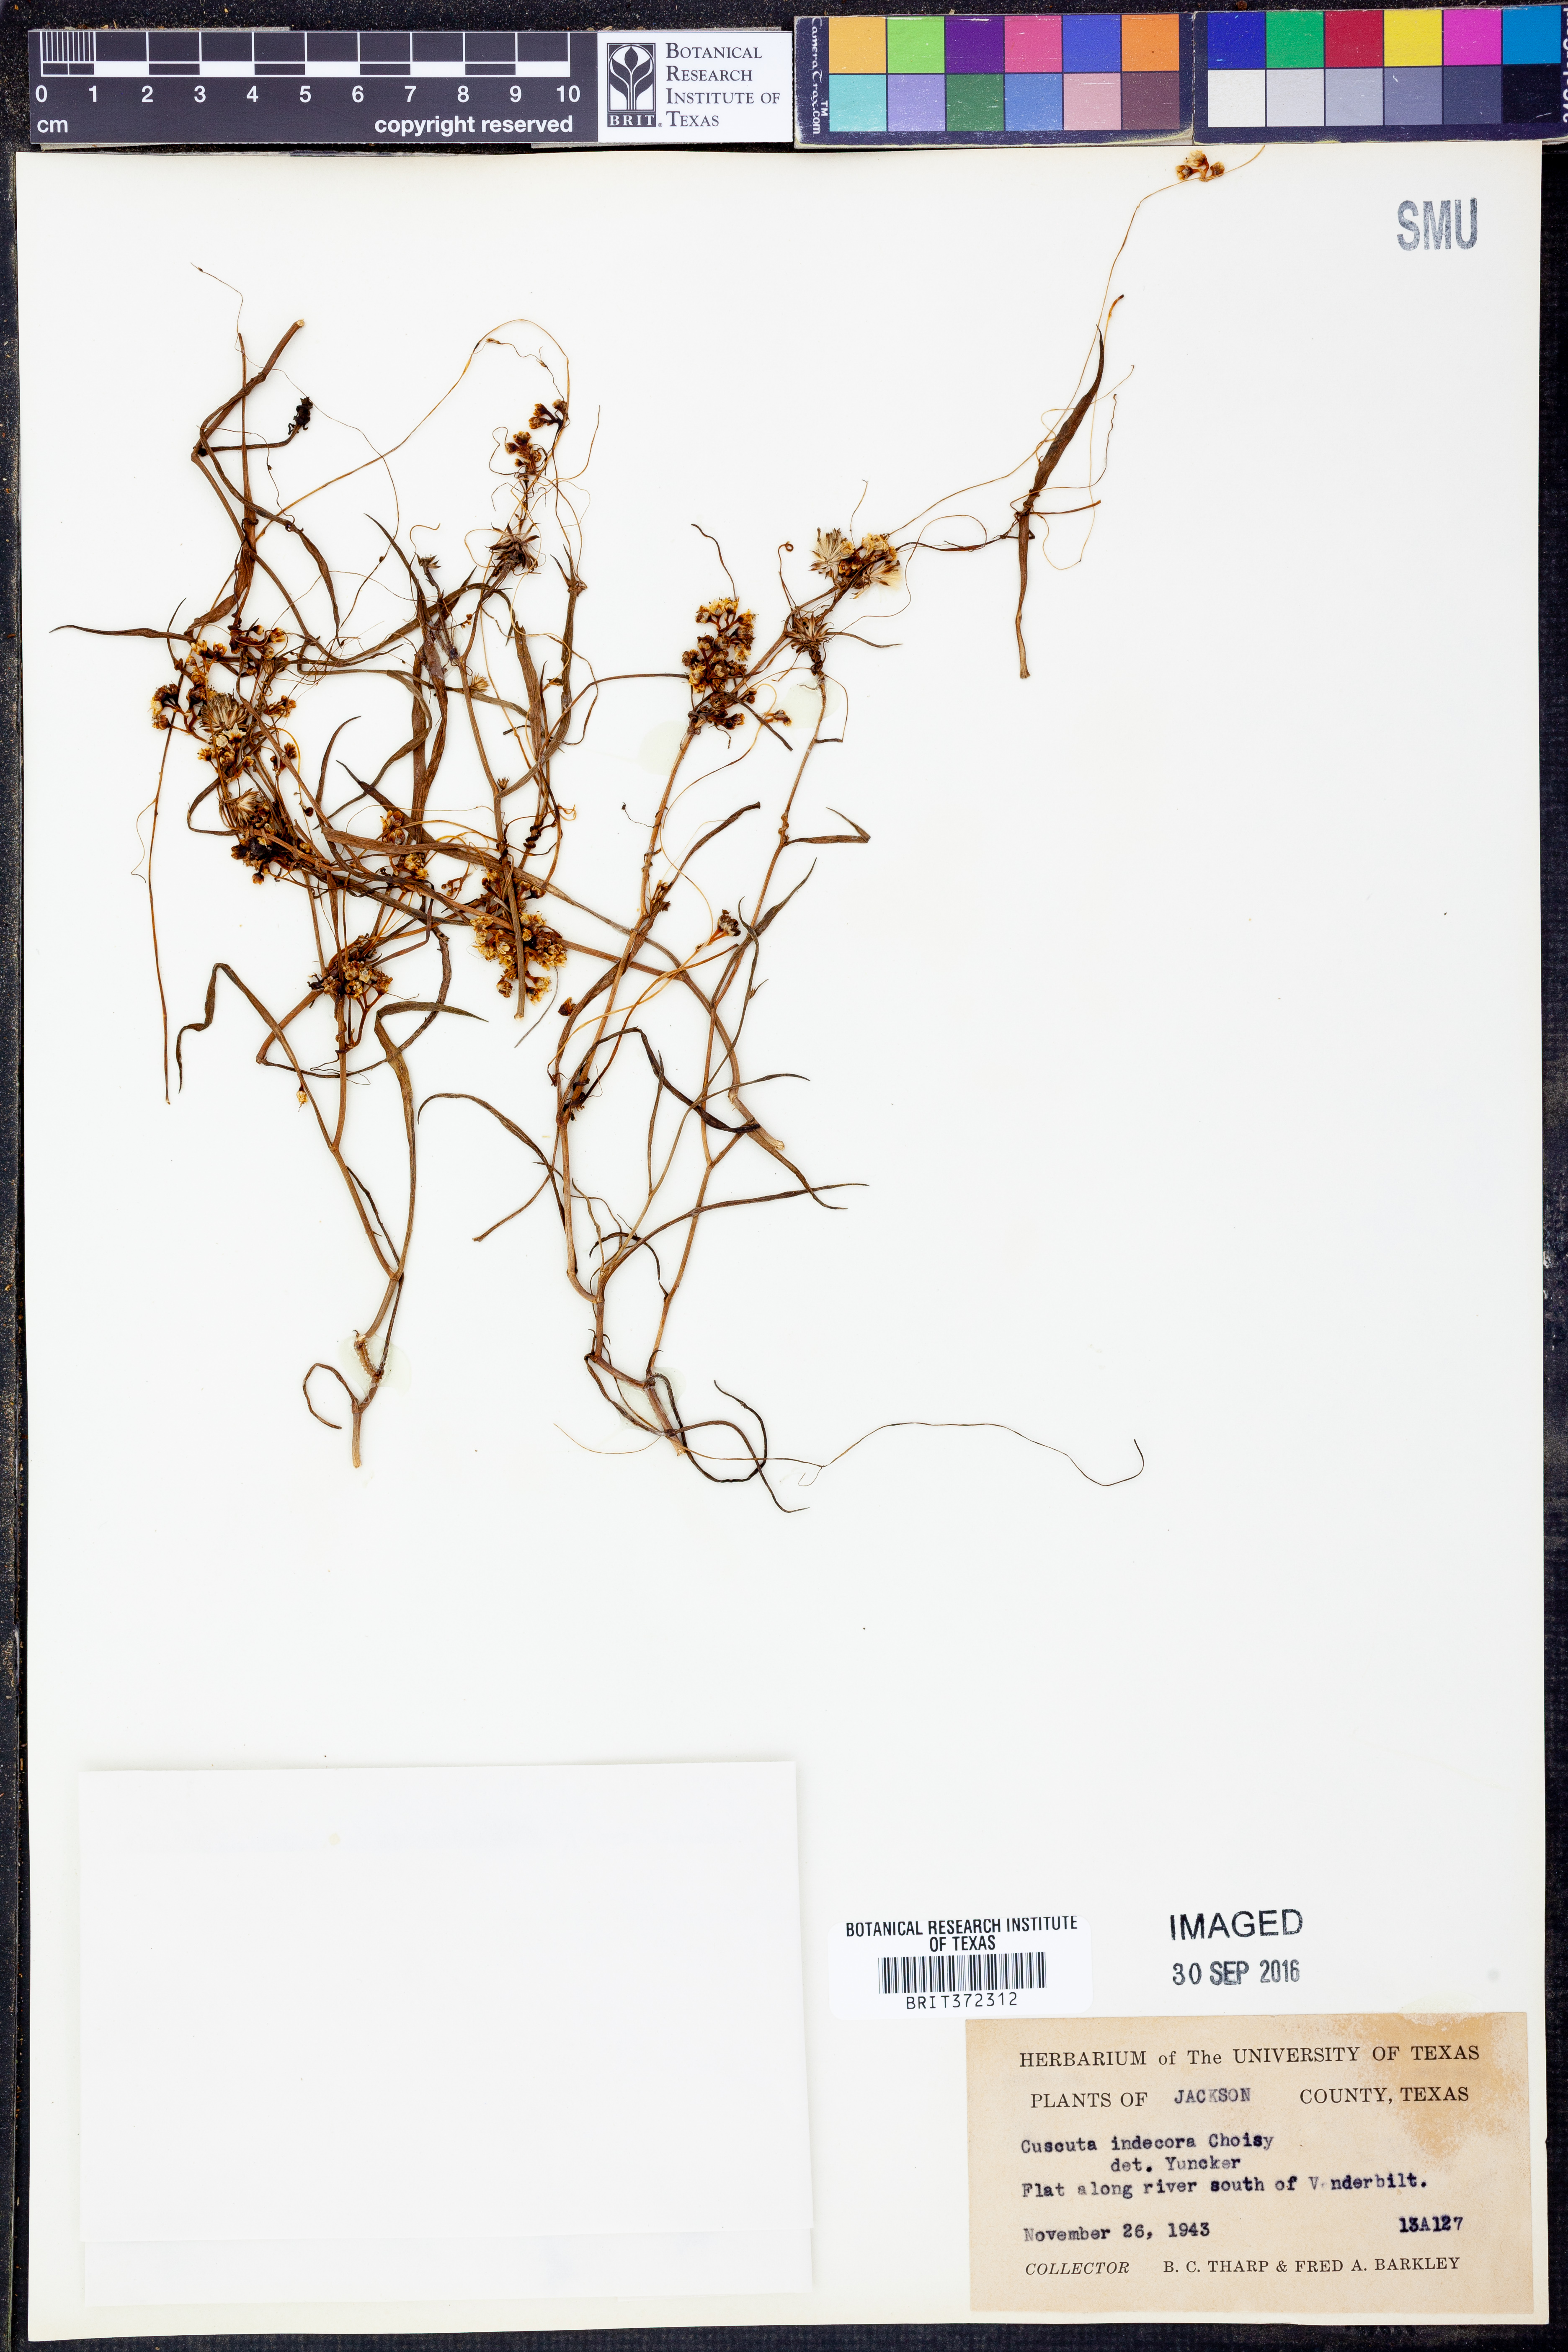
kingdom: Plantae
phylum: Tracheophyta
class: Magnoliopsida
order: Solanales
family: Convolvulaceae
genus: Cuscuta
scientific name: Cuscuta indecora
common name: Large-seed dodder
